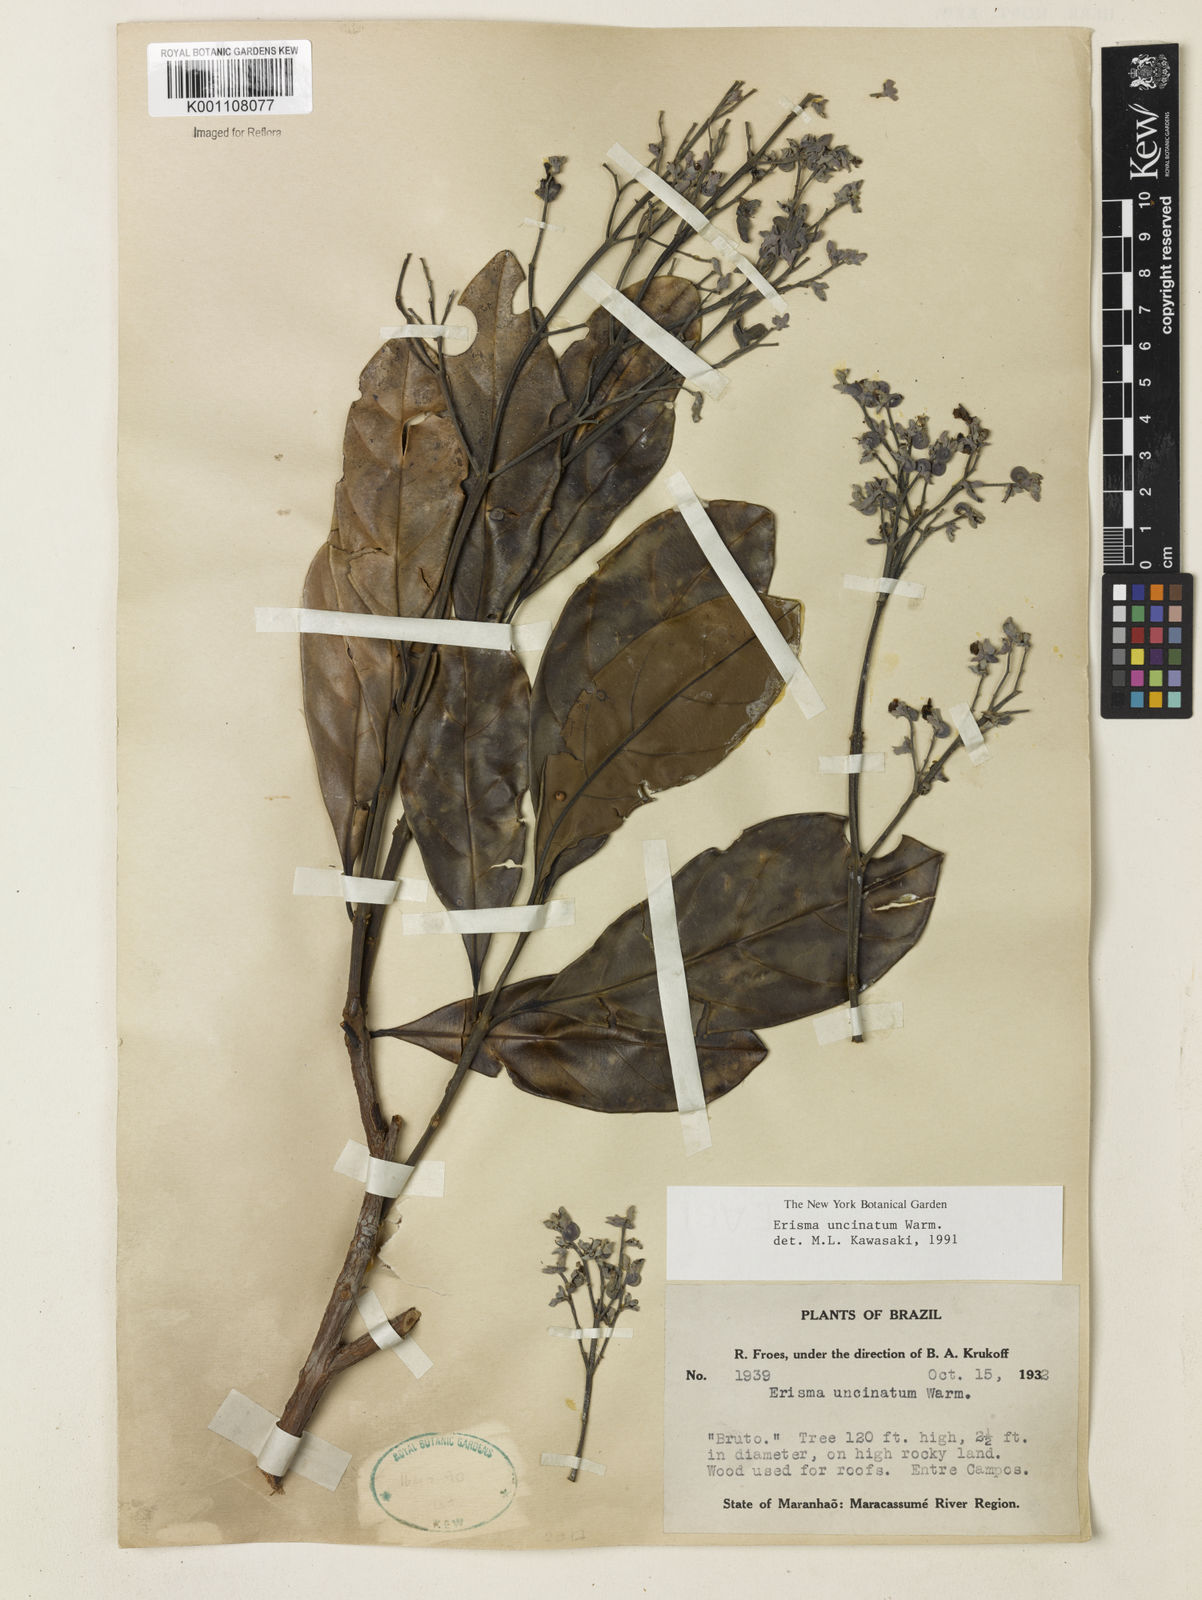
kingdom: Plantae
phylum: Tracheophyta
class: Magnoliopsida
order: Myrtales
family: Vochysiaceae
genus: Erisma
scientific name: Erisma uncinatum
